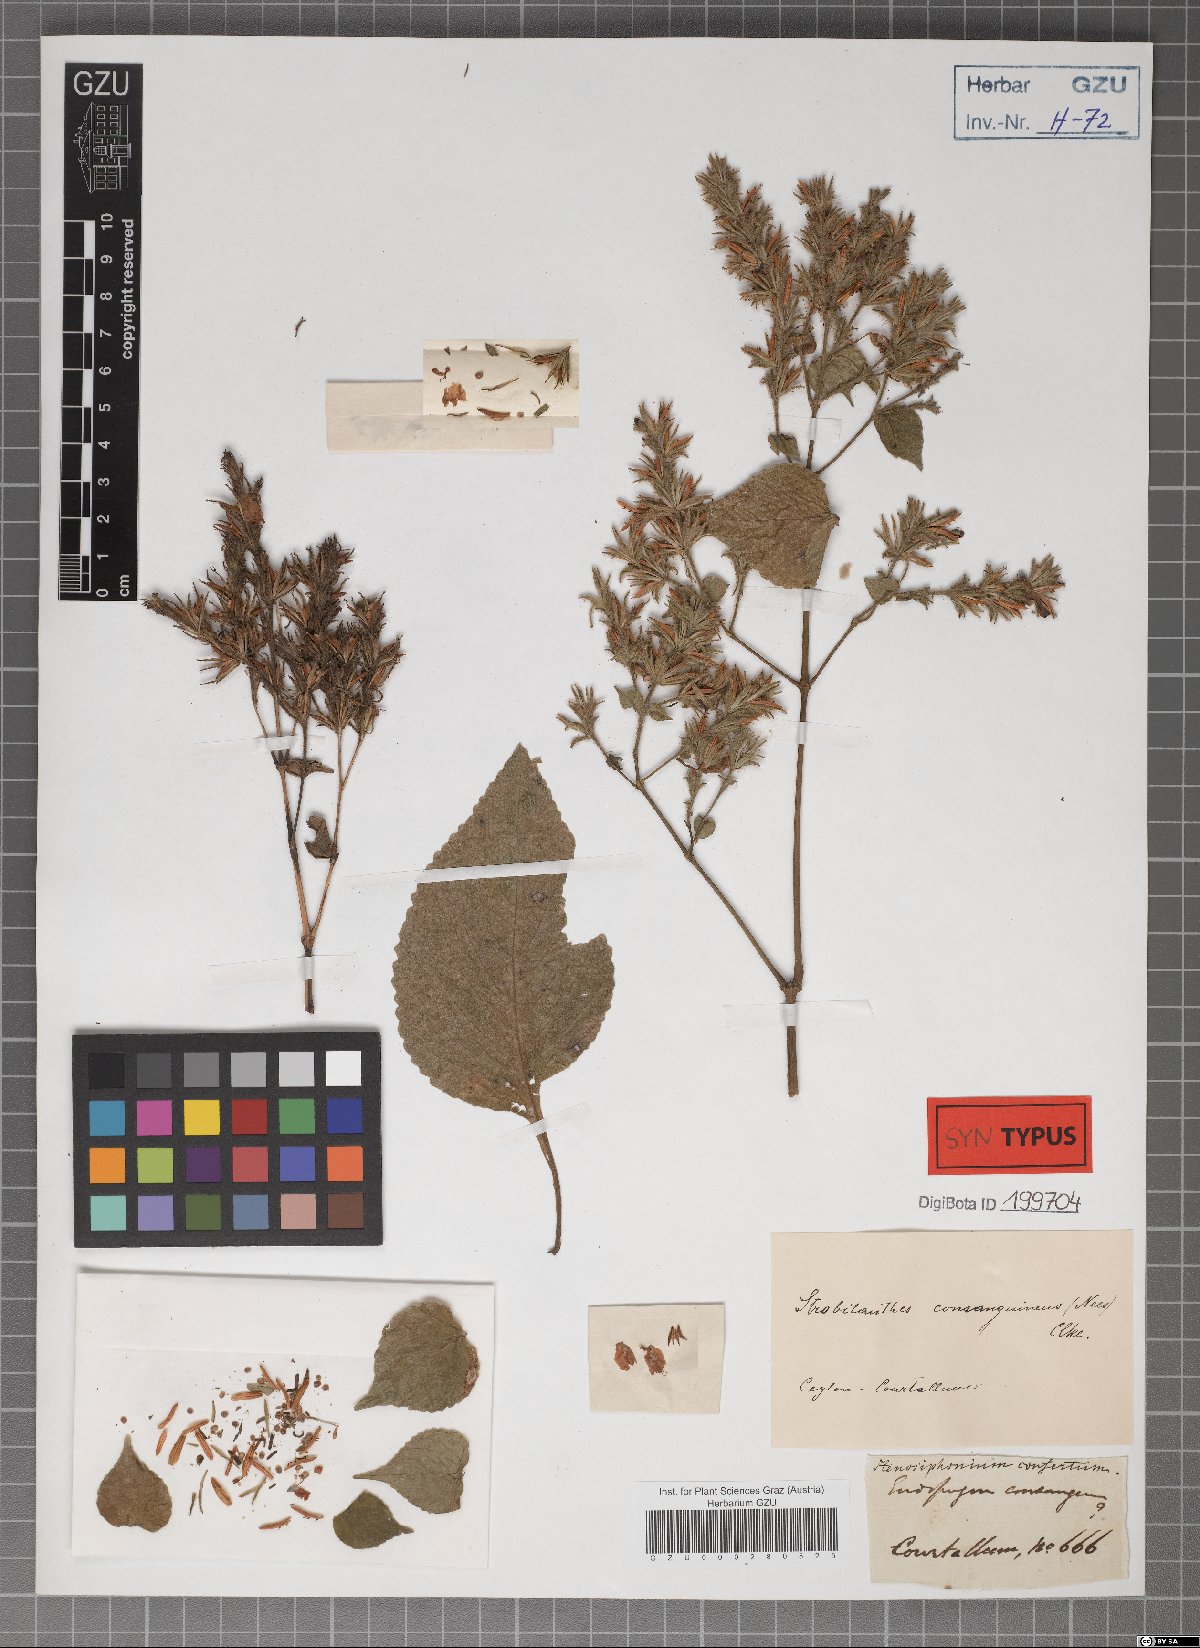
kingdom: Plantae
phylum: Tracheophyta
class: Magnoliopsida
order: Lamiales
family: Acanthaceae
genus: Strobilanthes
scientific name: Strobilanthes cordifolia
